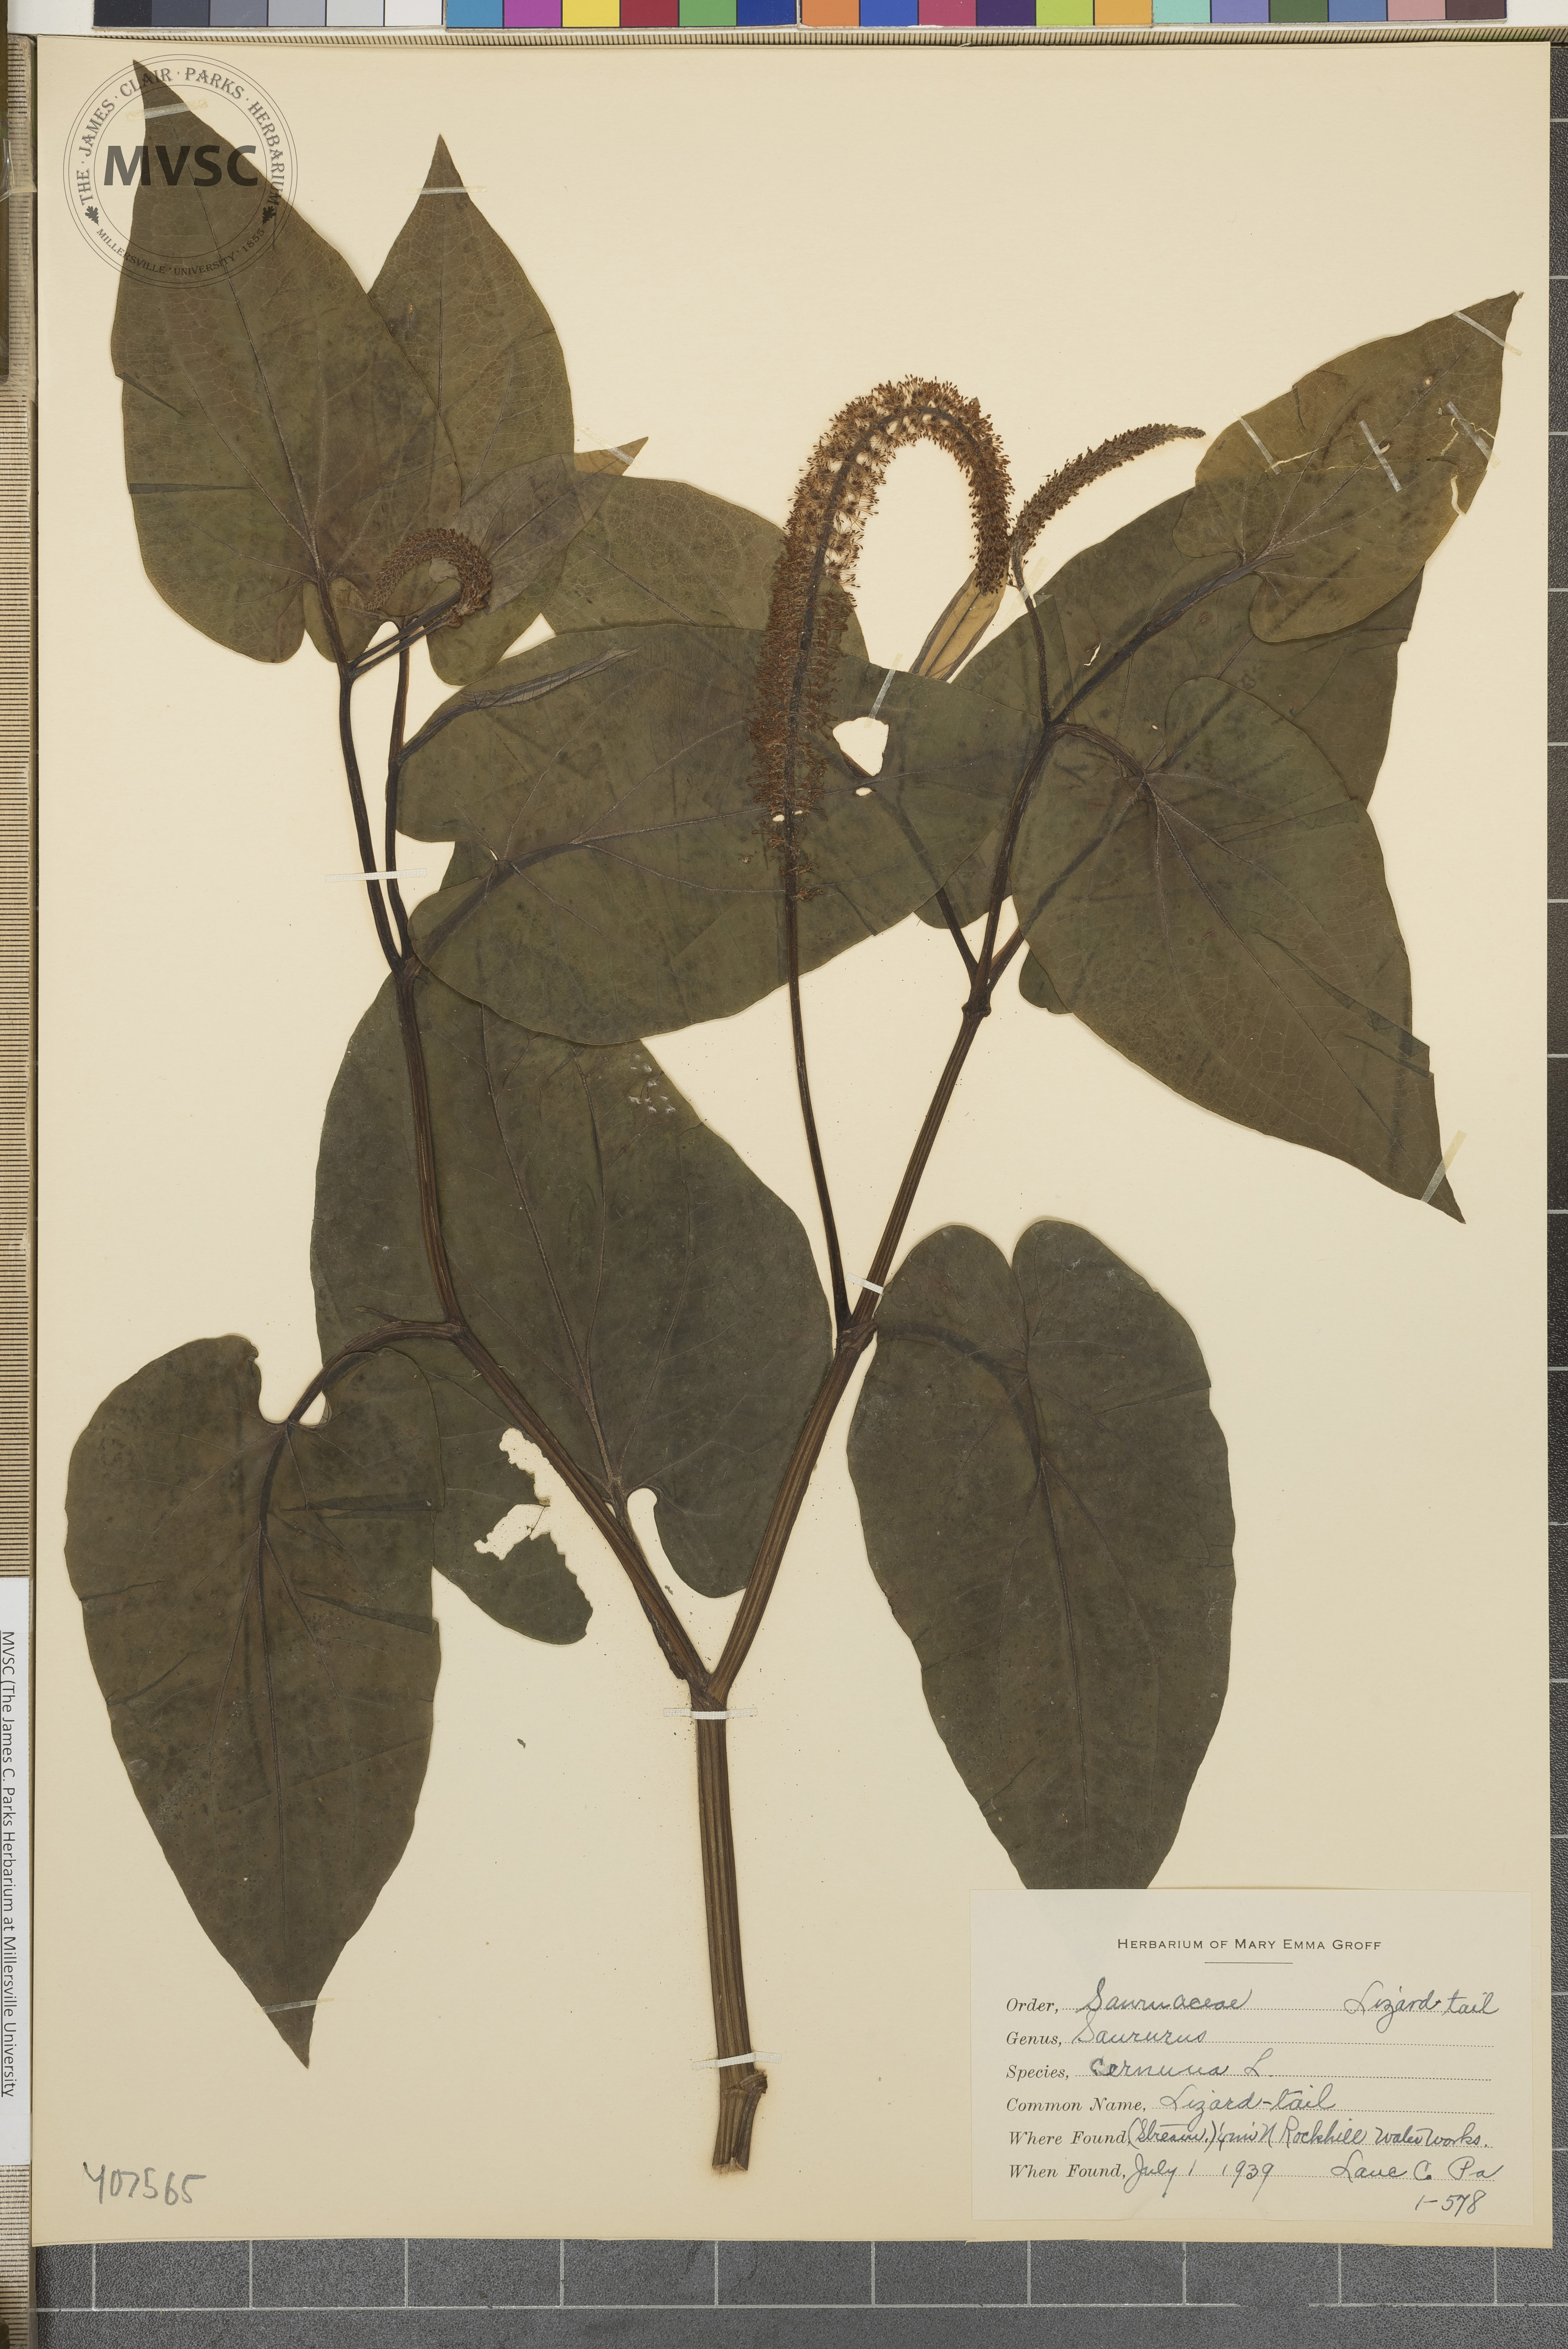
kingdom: Plantae
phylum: Tracheophyta
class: Magnoliopsida
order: Piperales
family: Saururaceae
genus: Saururus
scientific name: Saururus cernuus
